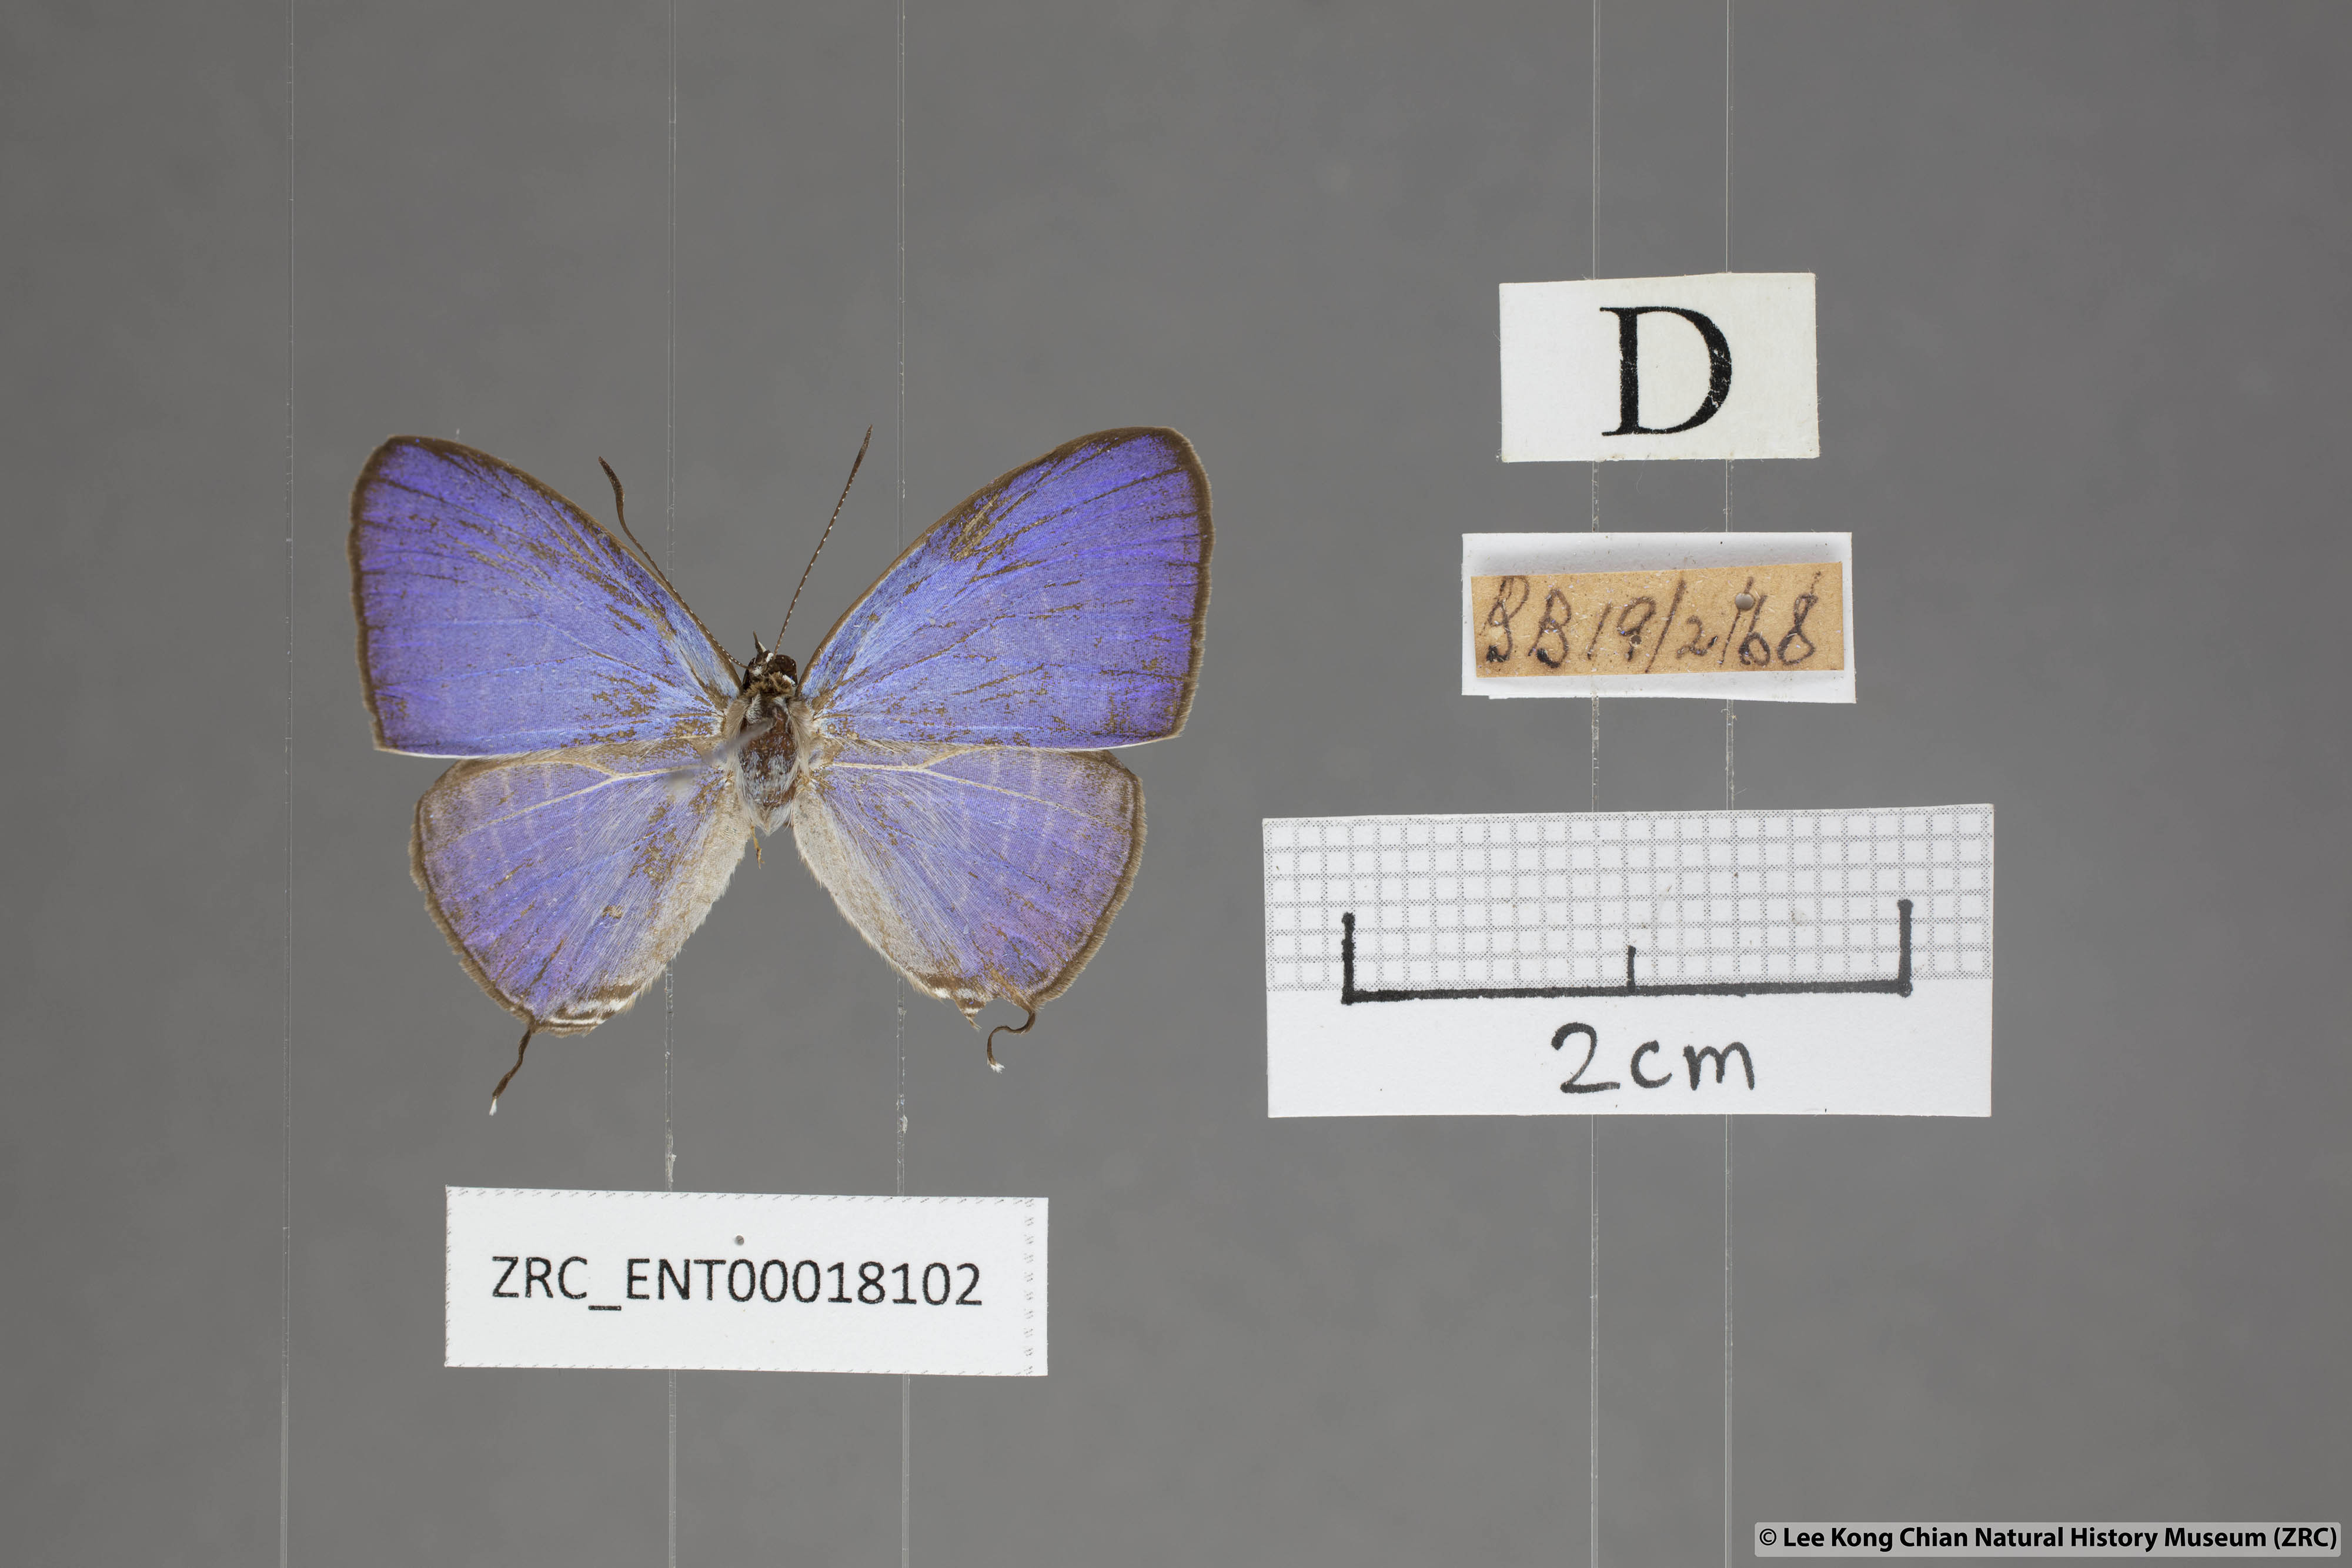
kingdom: Animalia
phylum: Arthropoda
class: Insecta
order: Lepidoptera
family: Lycaenidae
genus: Jamides
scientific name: Jamides
